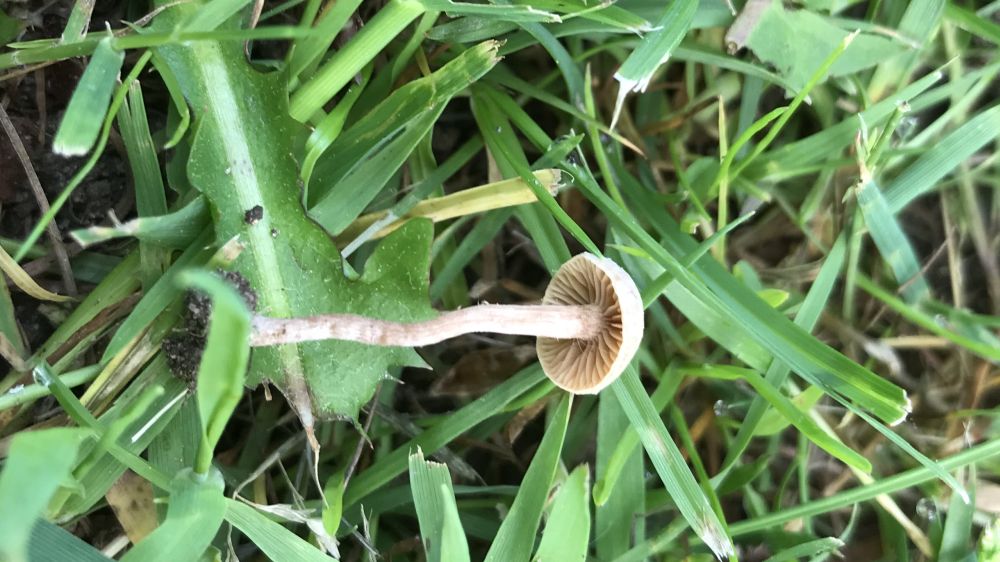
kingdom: Fungi
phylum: Basidiomycota
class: Agaricomycetes
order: Agaricales
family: Tubariaceae
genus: Tubaria
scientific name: Tubaria furfuracea
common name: kliddet fnughat
